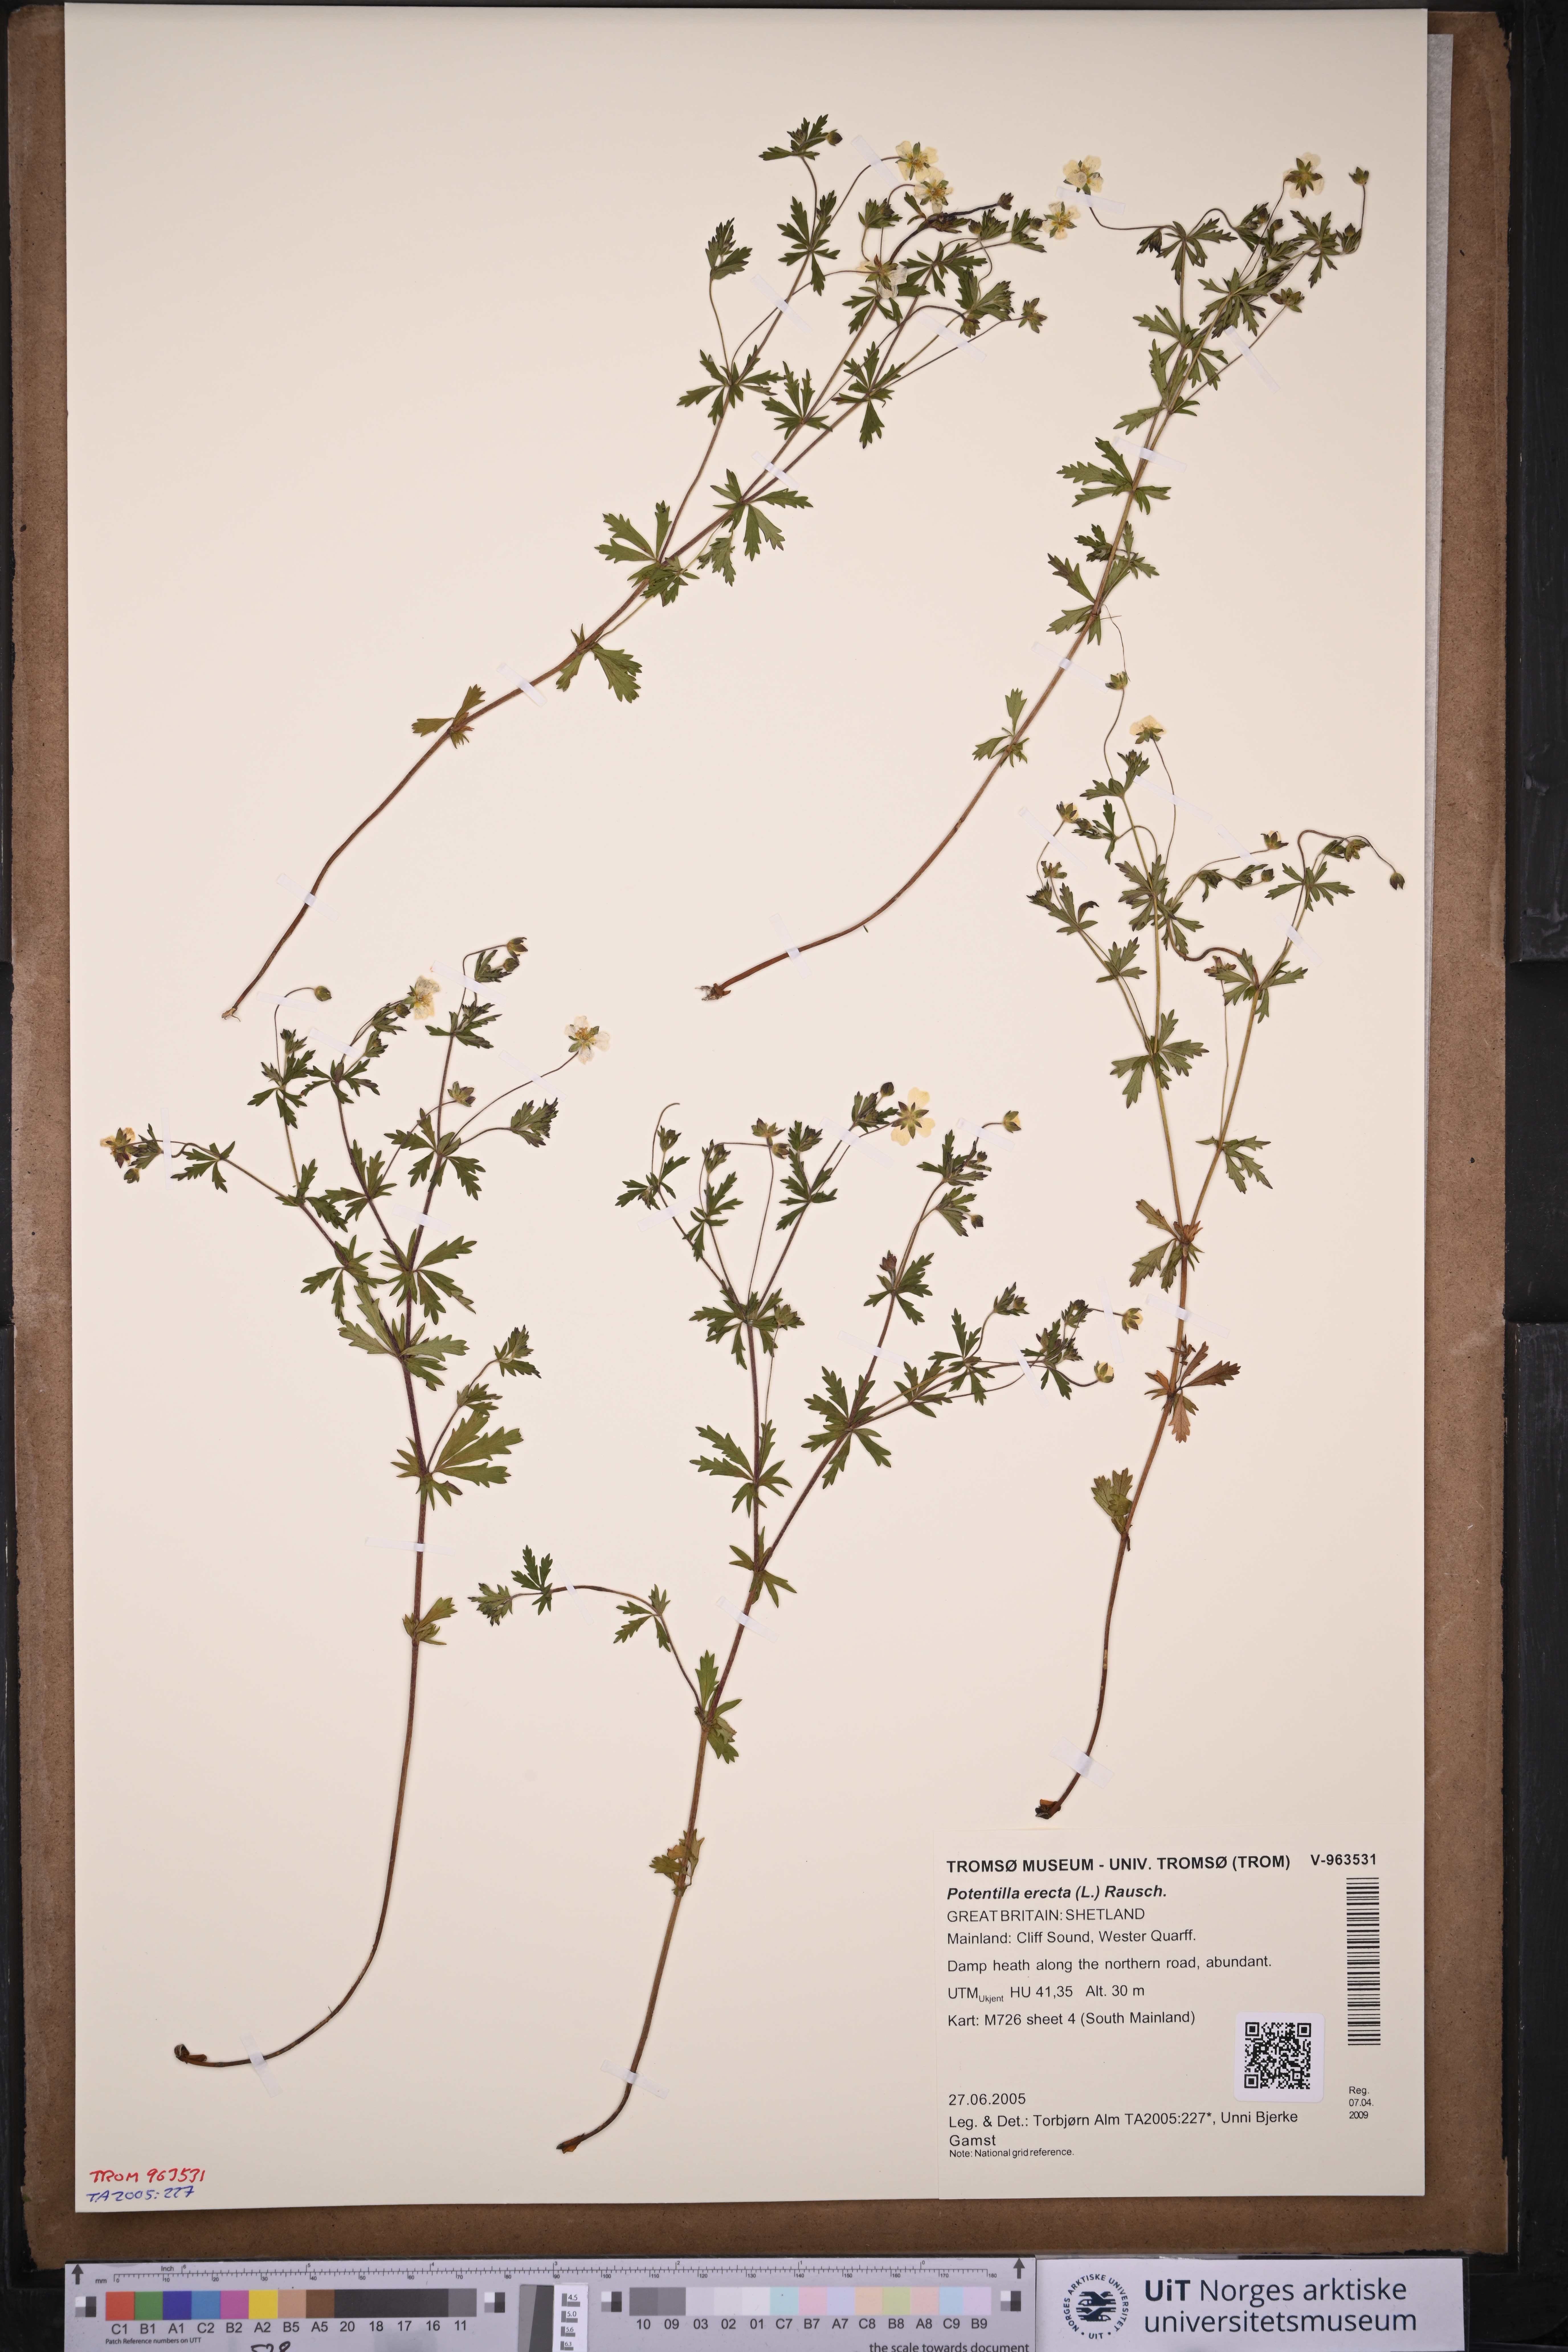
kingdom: Plantae
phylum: Tracheophyta
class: Magnoliopsida
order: Rosales
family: Rosaceae
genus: Potentilla
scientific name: Potentilla erecta
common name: Tormentil
